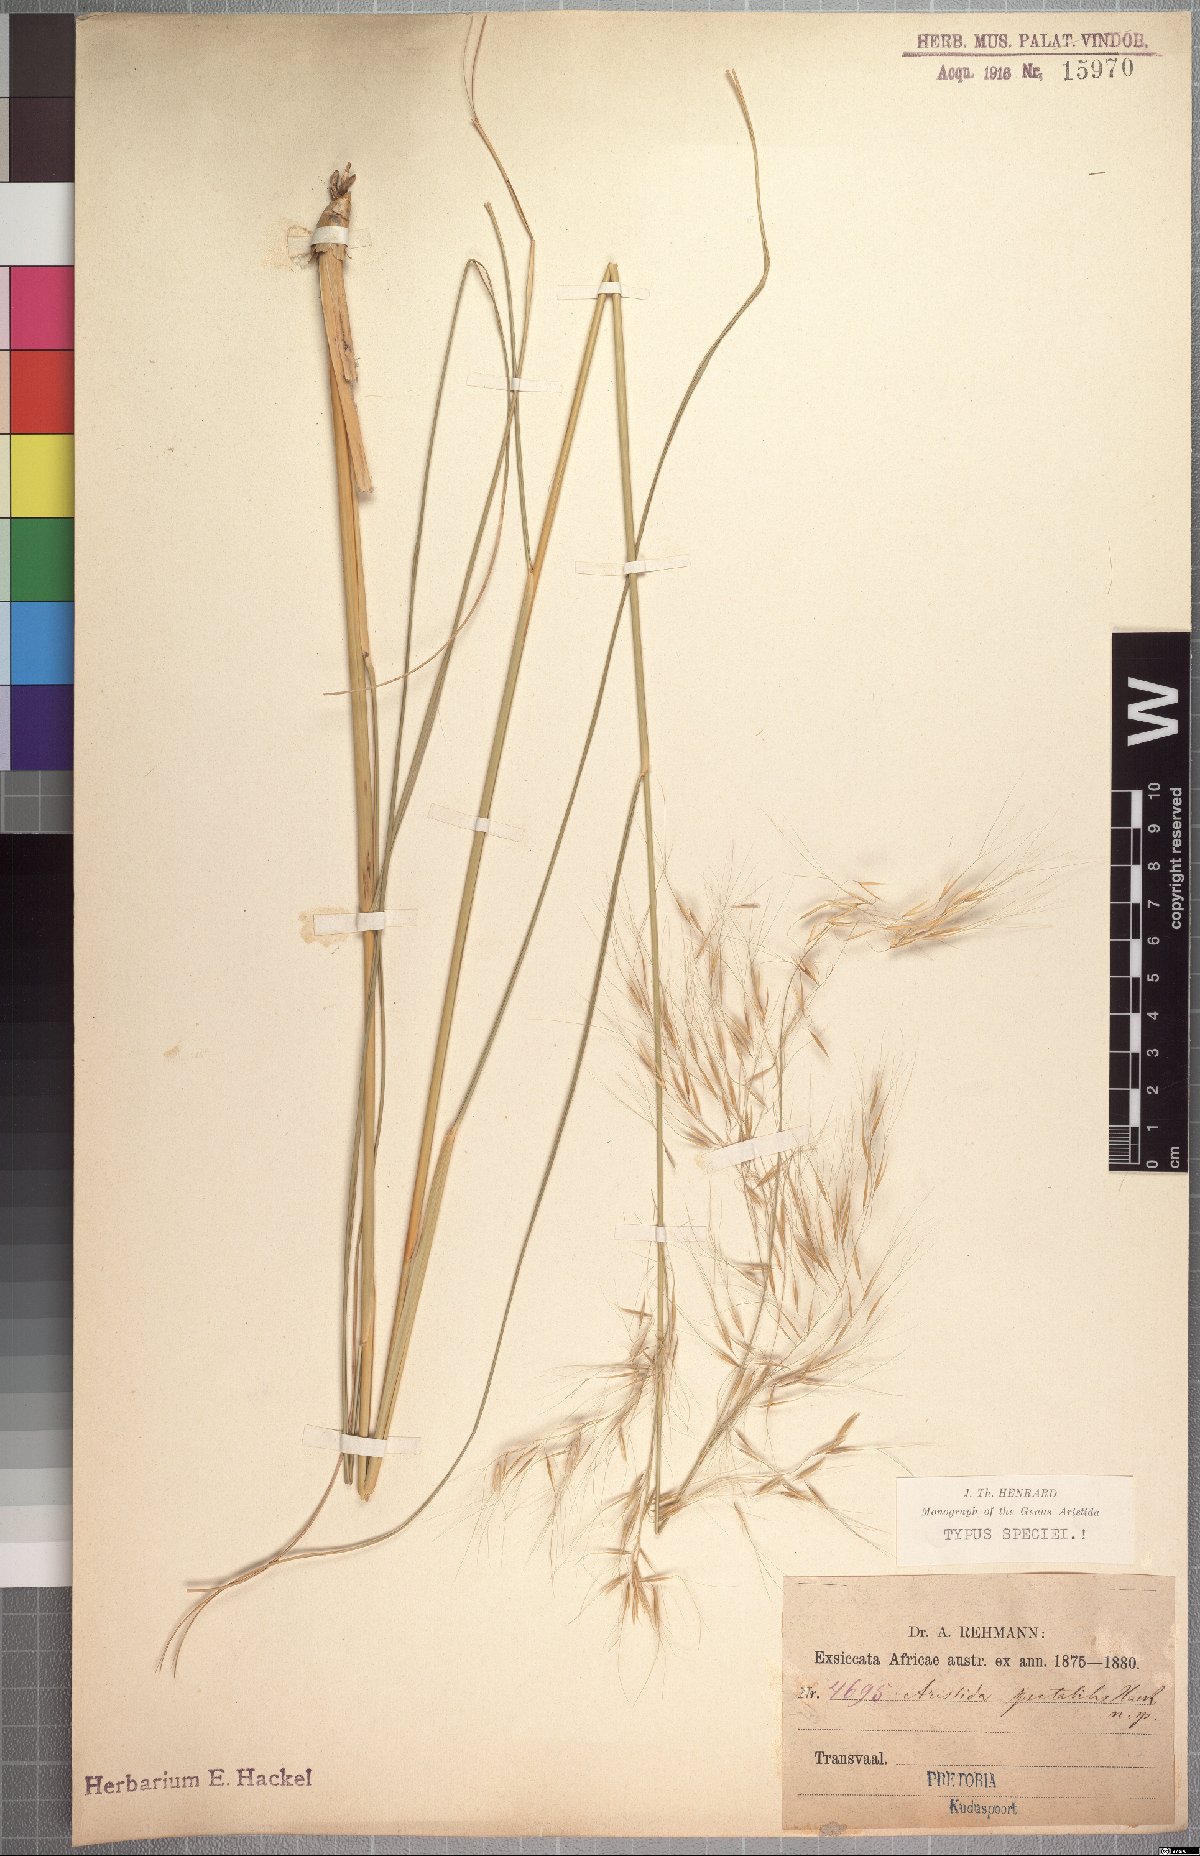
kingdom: Plantae
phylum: Tracheophyta
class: Liliopsida
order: Poales
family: Poaceae
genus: Aristida
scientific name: Aristida spectabilis
